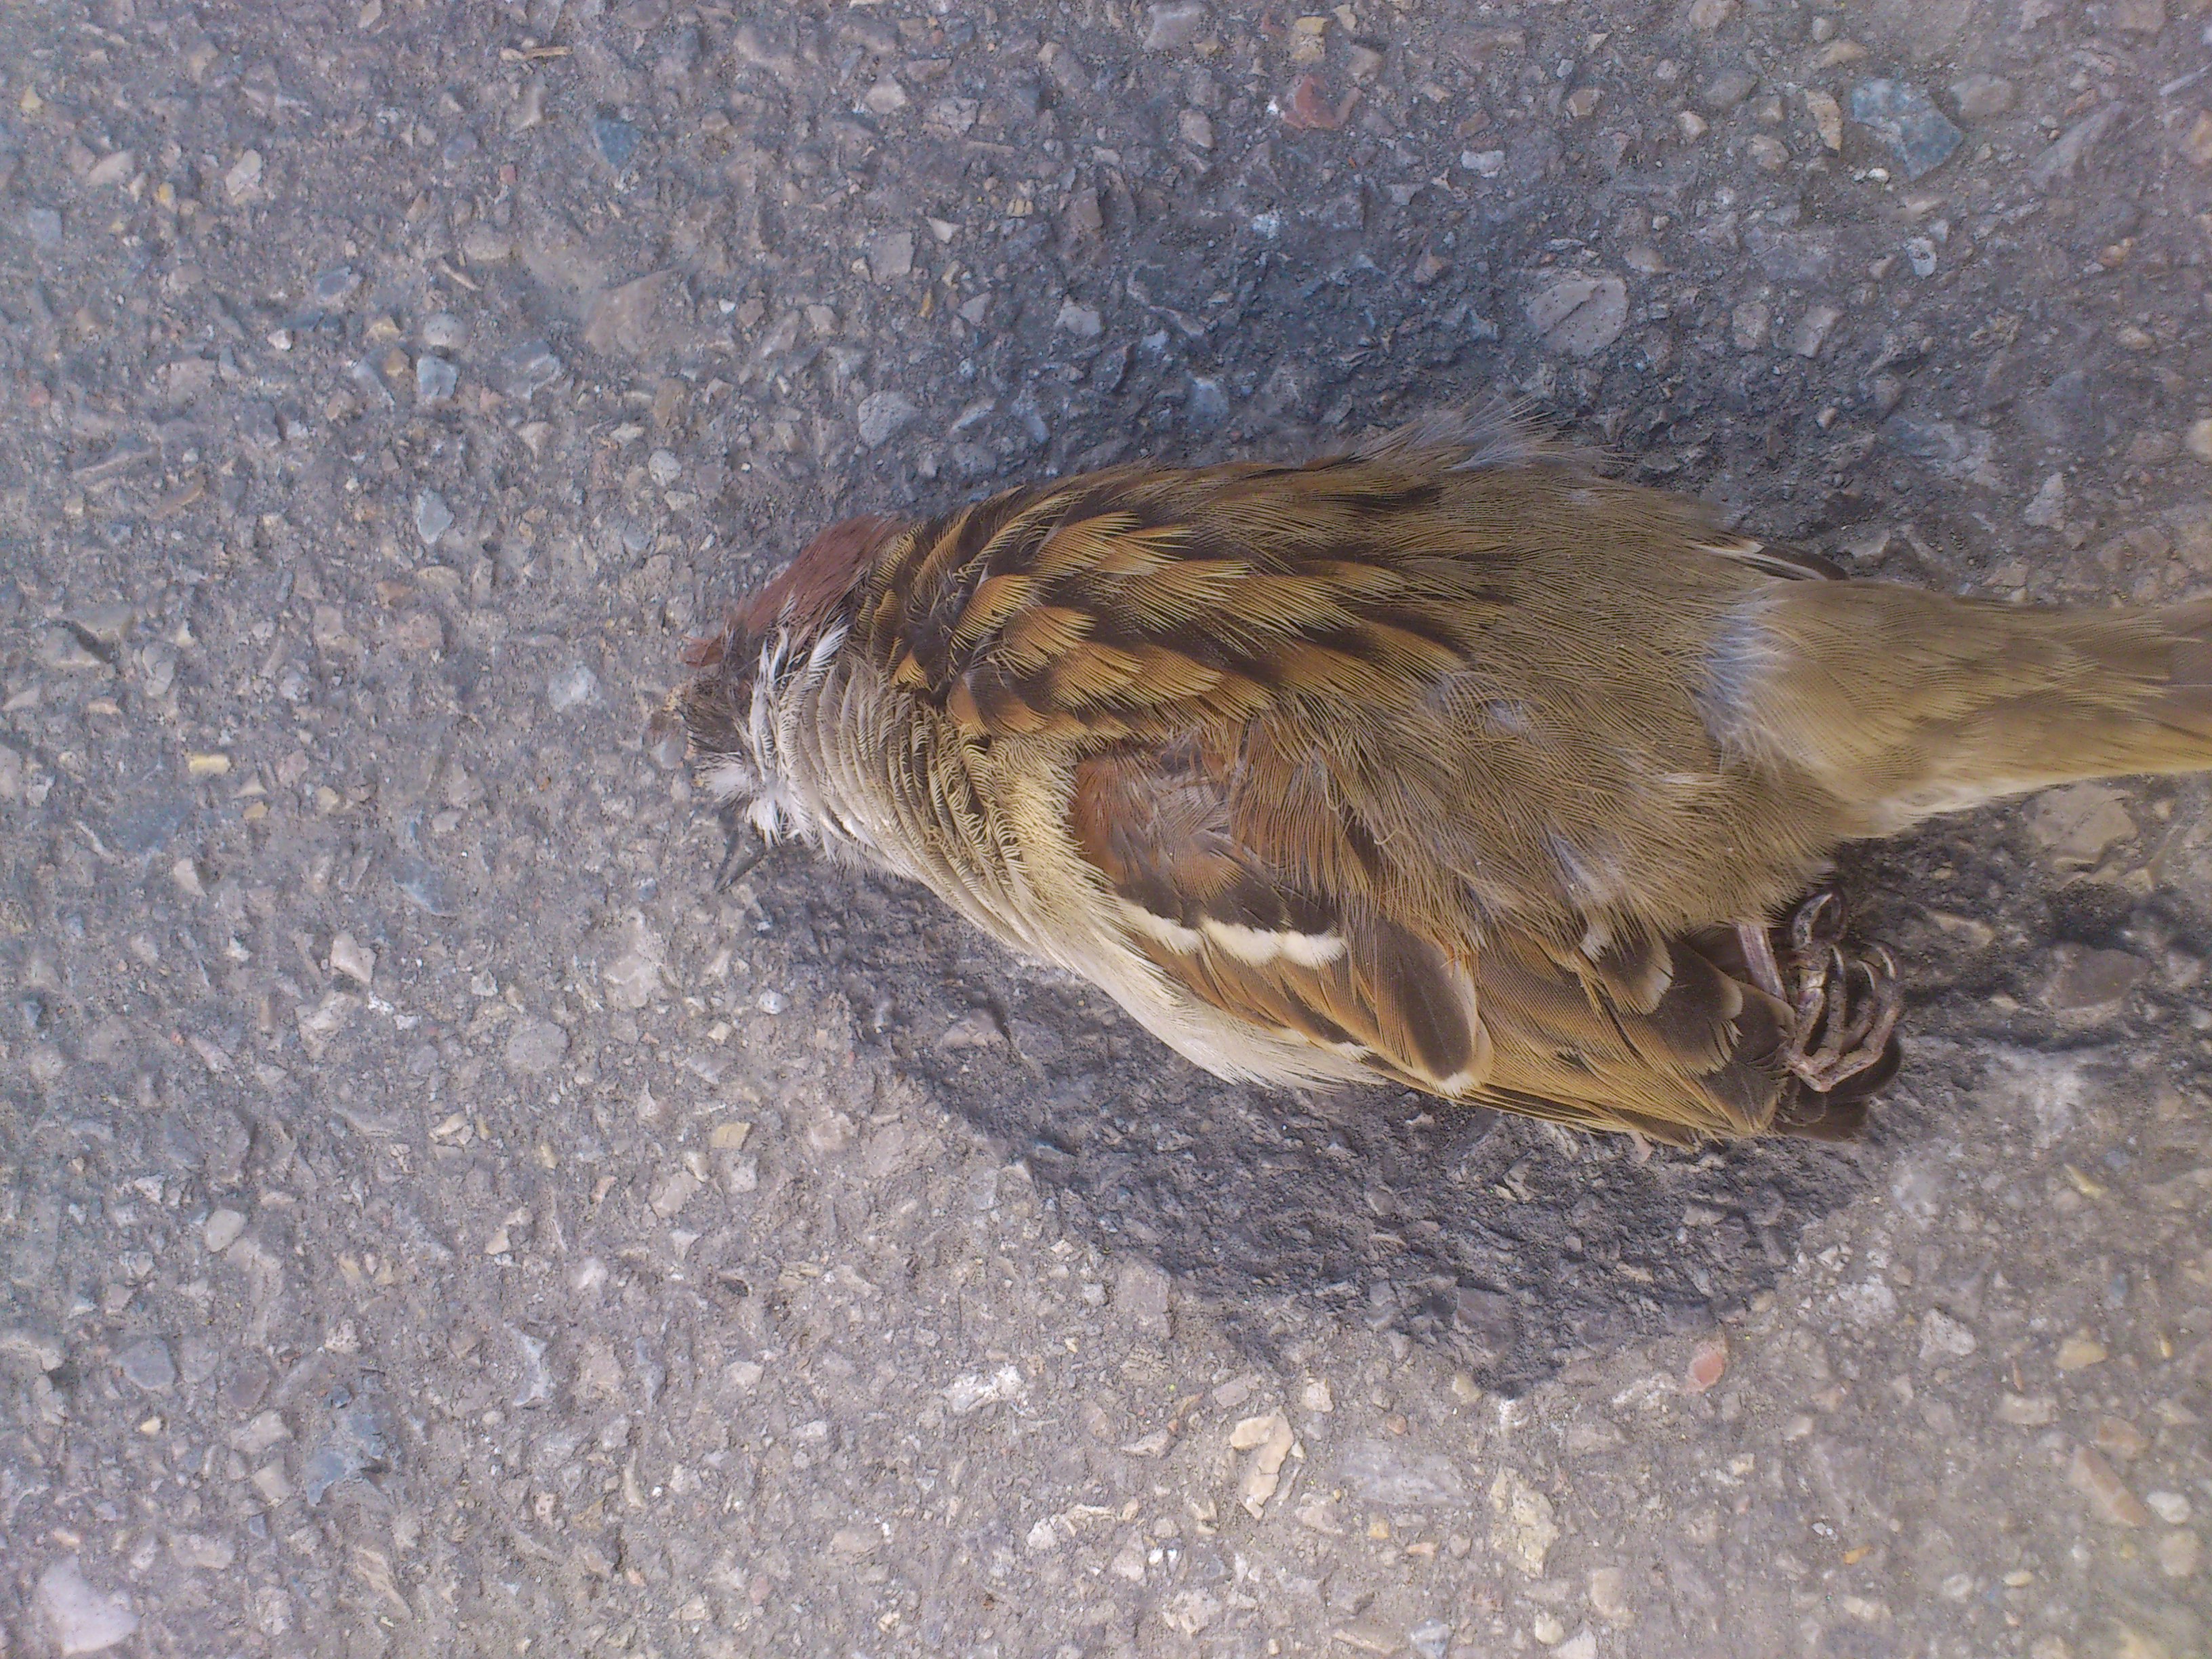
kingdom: Animalia
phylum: Chordata
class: Aves
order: Passeriformes
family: Passeridae
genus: Passer
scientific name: Passer montanus
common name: Eurasian tree sparrow
